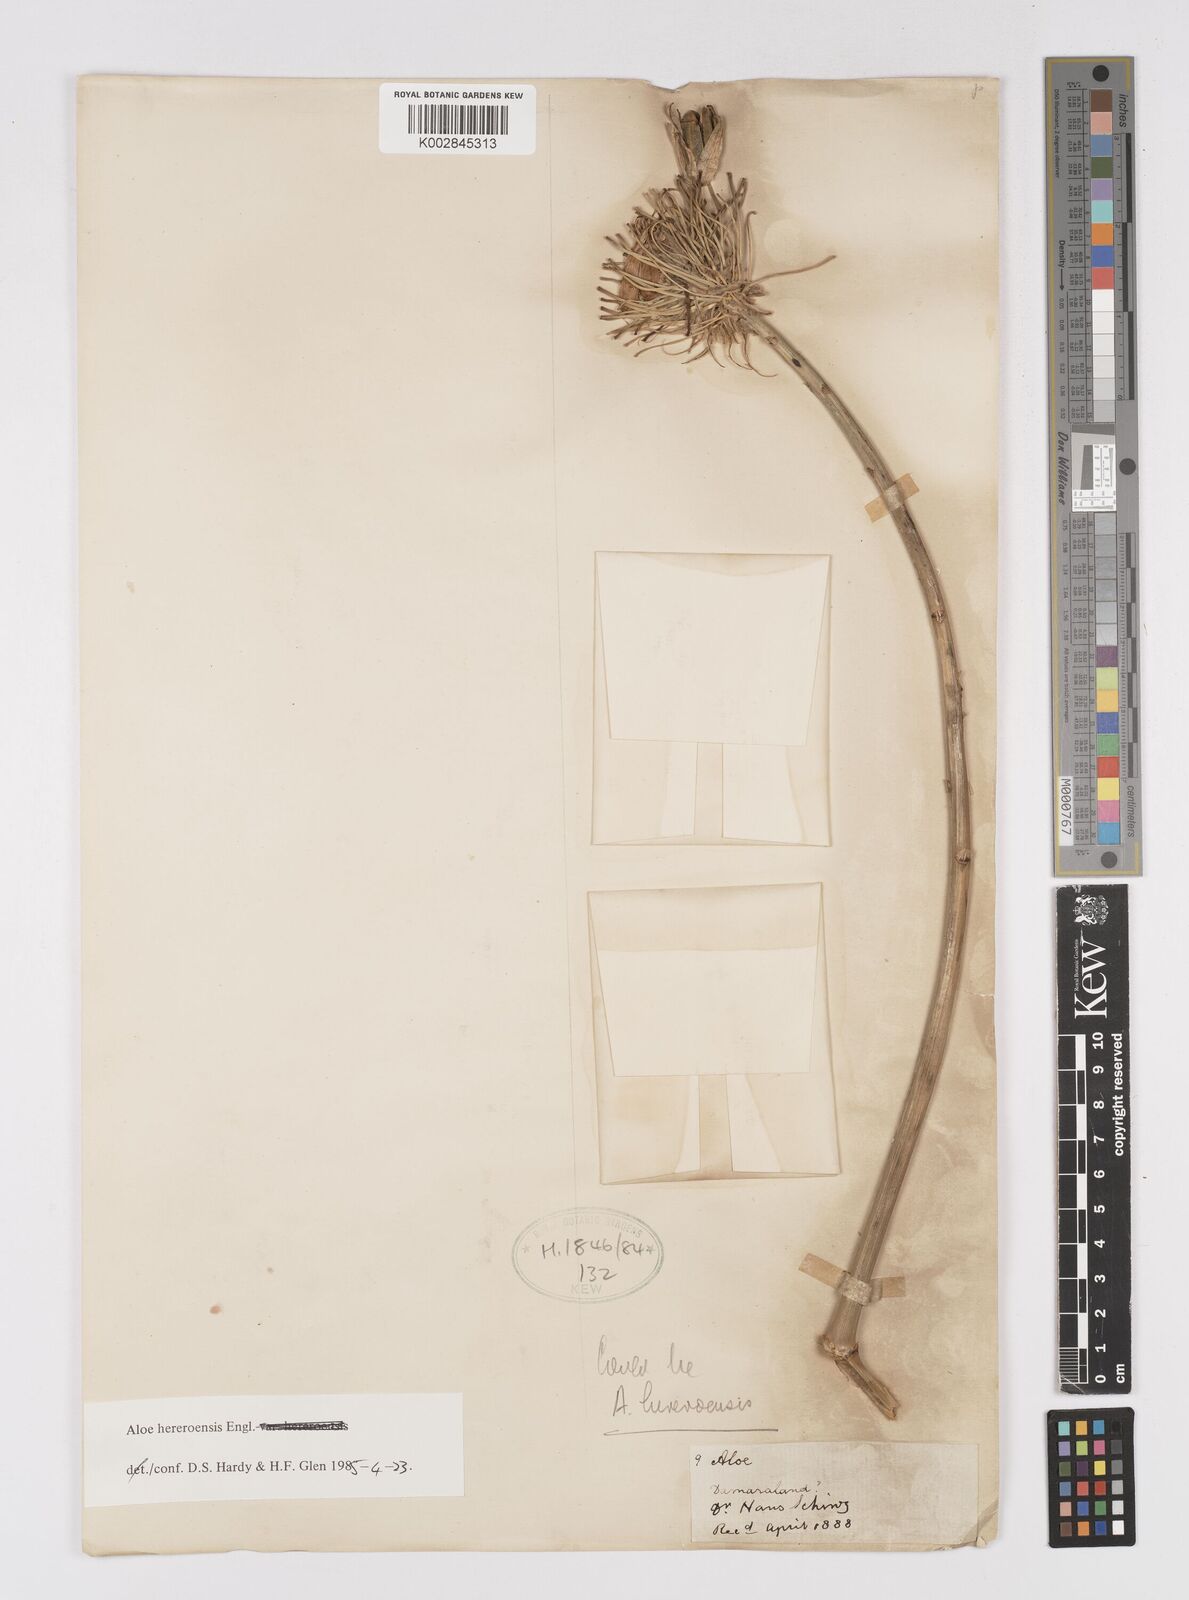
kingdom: Plantae
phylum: Tracheophyta
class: Liliopsida
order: Asparagales
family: Asphodelaceae
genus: Aloe
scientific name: Aloe hereroensis
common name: Herero aloe
